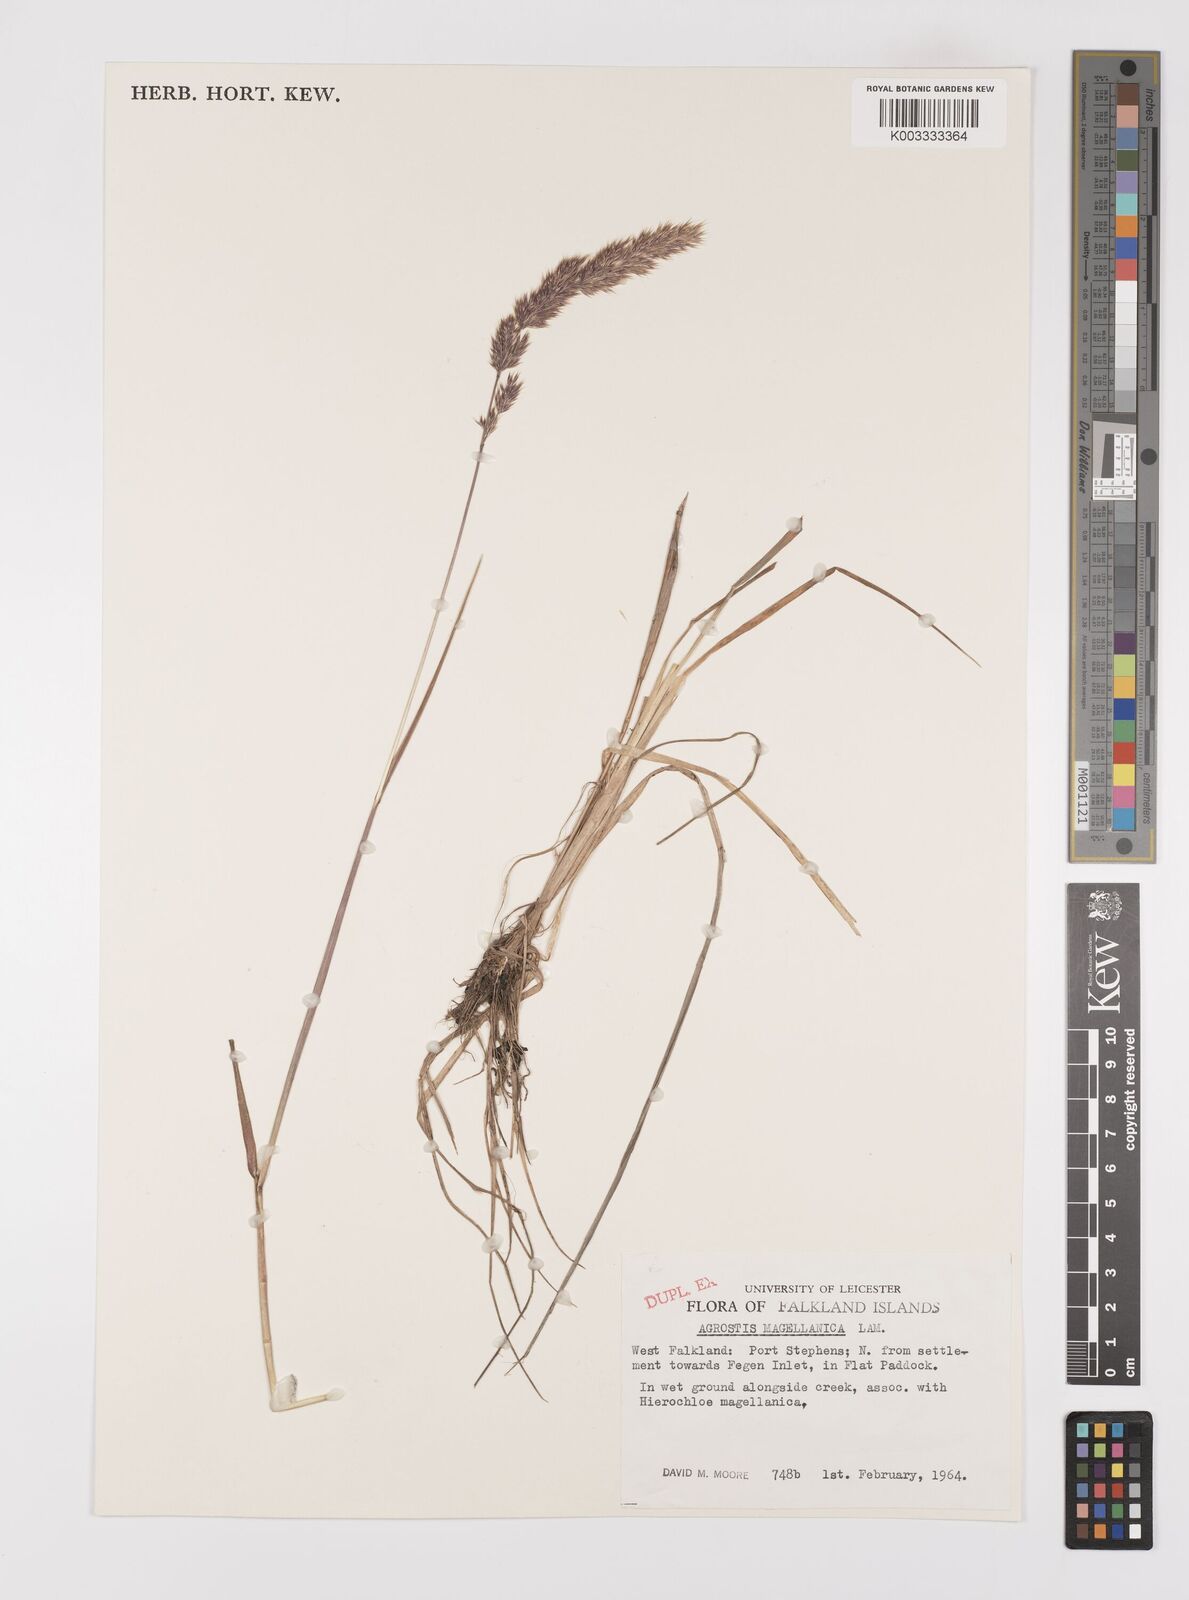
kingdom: Plantae
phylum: Tracheophyta
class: Liliopsida
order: Poales
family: Poaceae
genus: Polypogon
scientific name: Polypogon magellanicus
